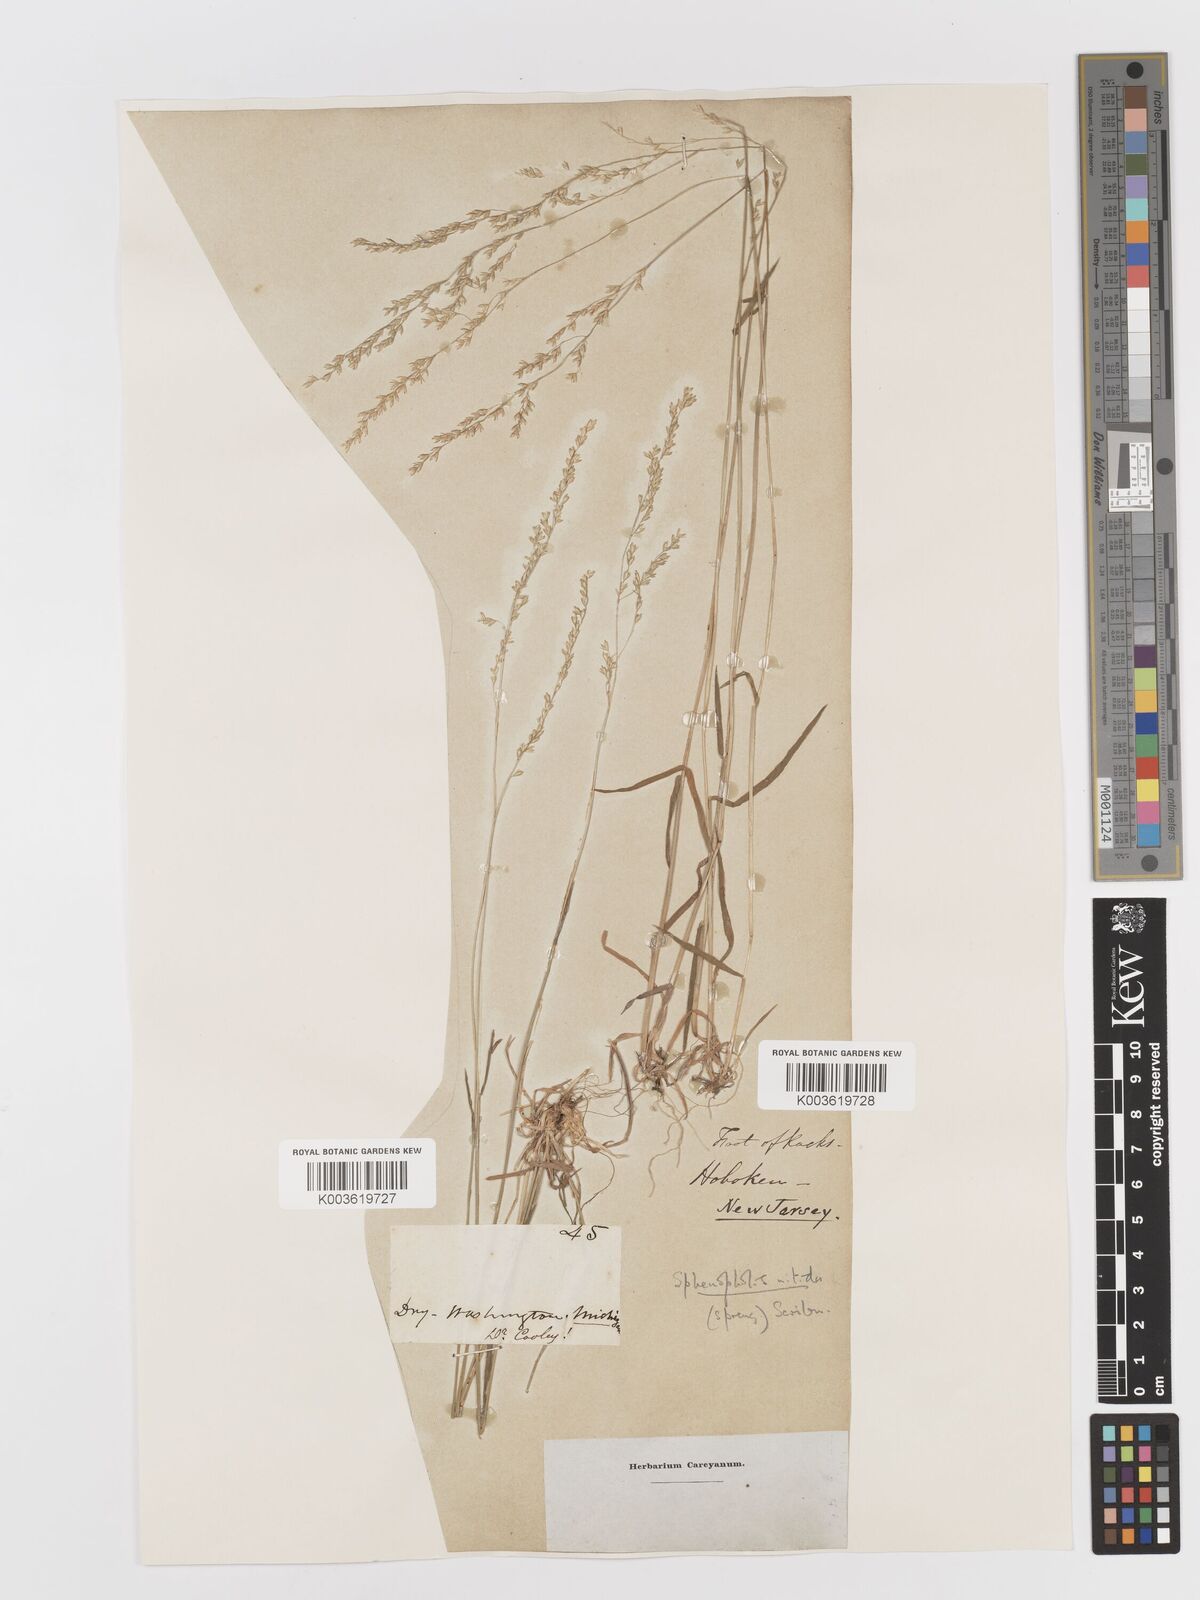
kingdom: Plantae
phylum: Tracheophyta
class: Liliopsida
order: Poales
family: Poaceae
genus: Sphenopholis
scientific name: Sphenopholis nitida
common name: Shiny wedgegrass
